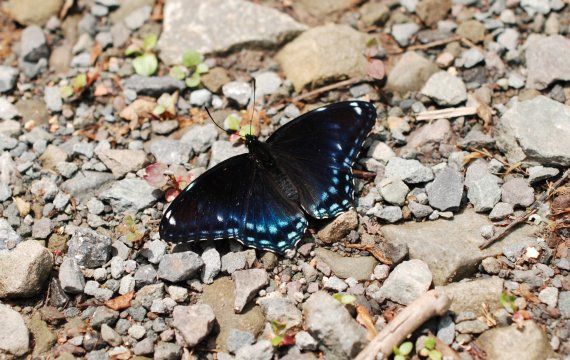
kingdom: Animalia
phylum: Arthropoda
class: Insecta
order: Lepidoptera
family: Nymphalidae
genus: Limenitis
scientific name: Limenitis arthemis
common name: Red-spotted Admiral
